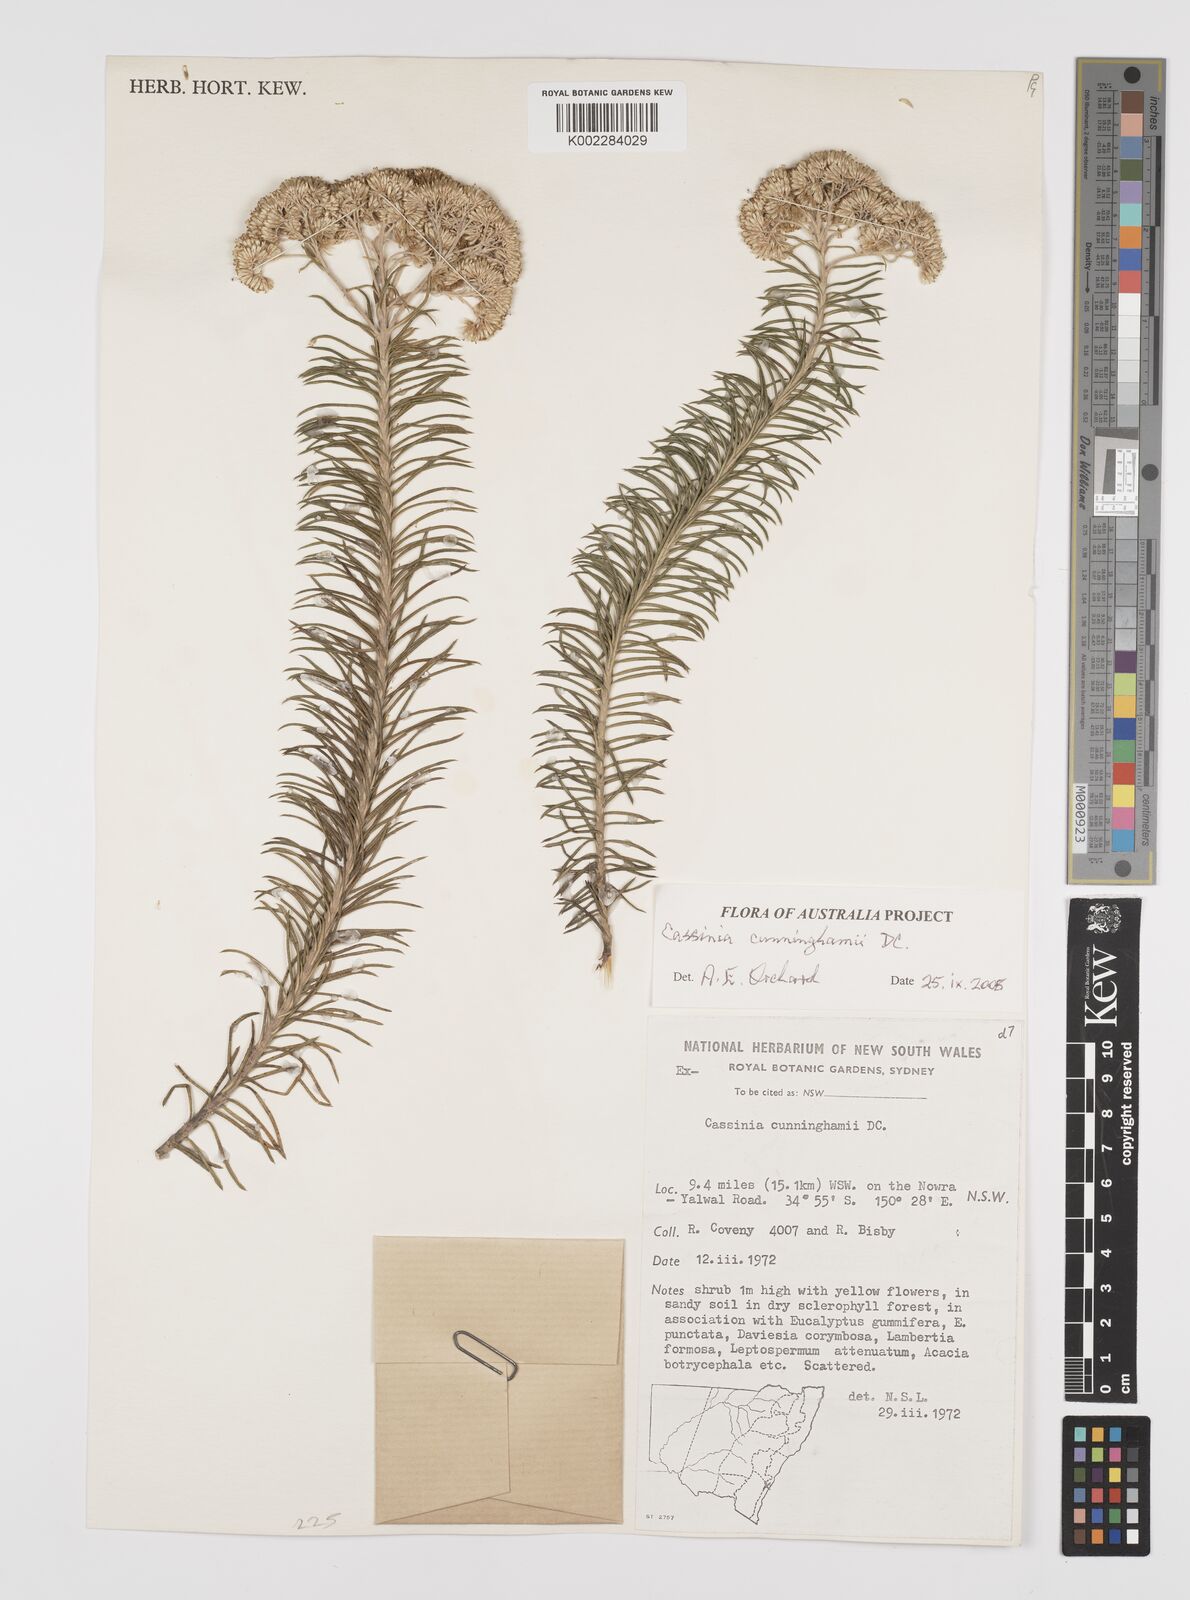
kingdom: Plantae
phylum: Tracheophyta
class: Magnoliopsida
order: Asterales
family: Asteraceae
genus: Cassinia
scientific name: Cassinia cunninghamii
